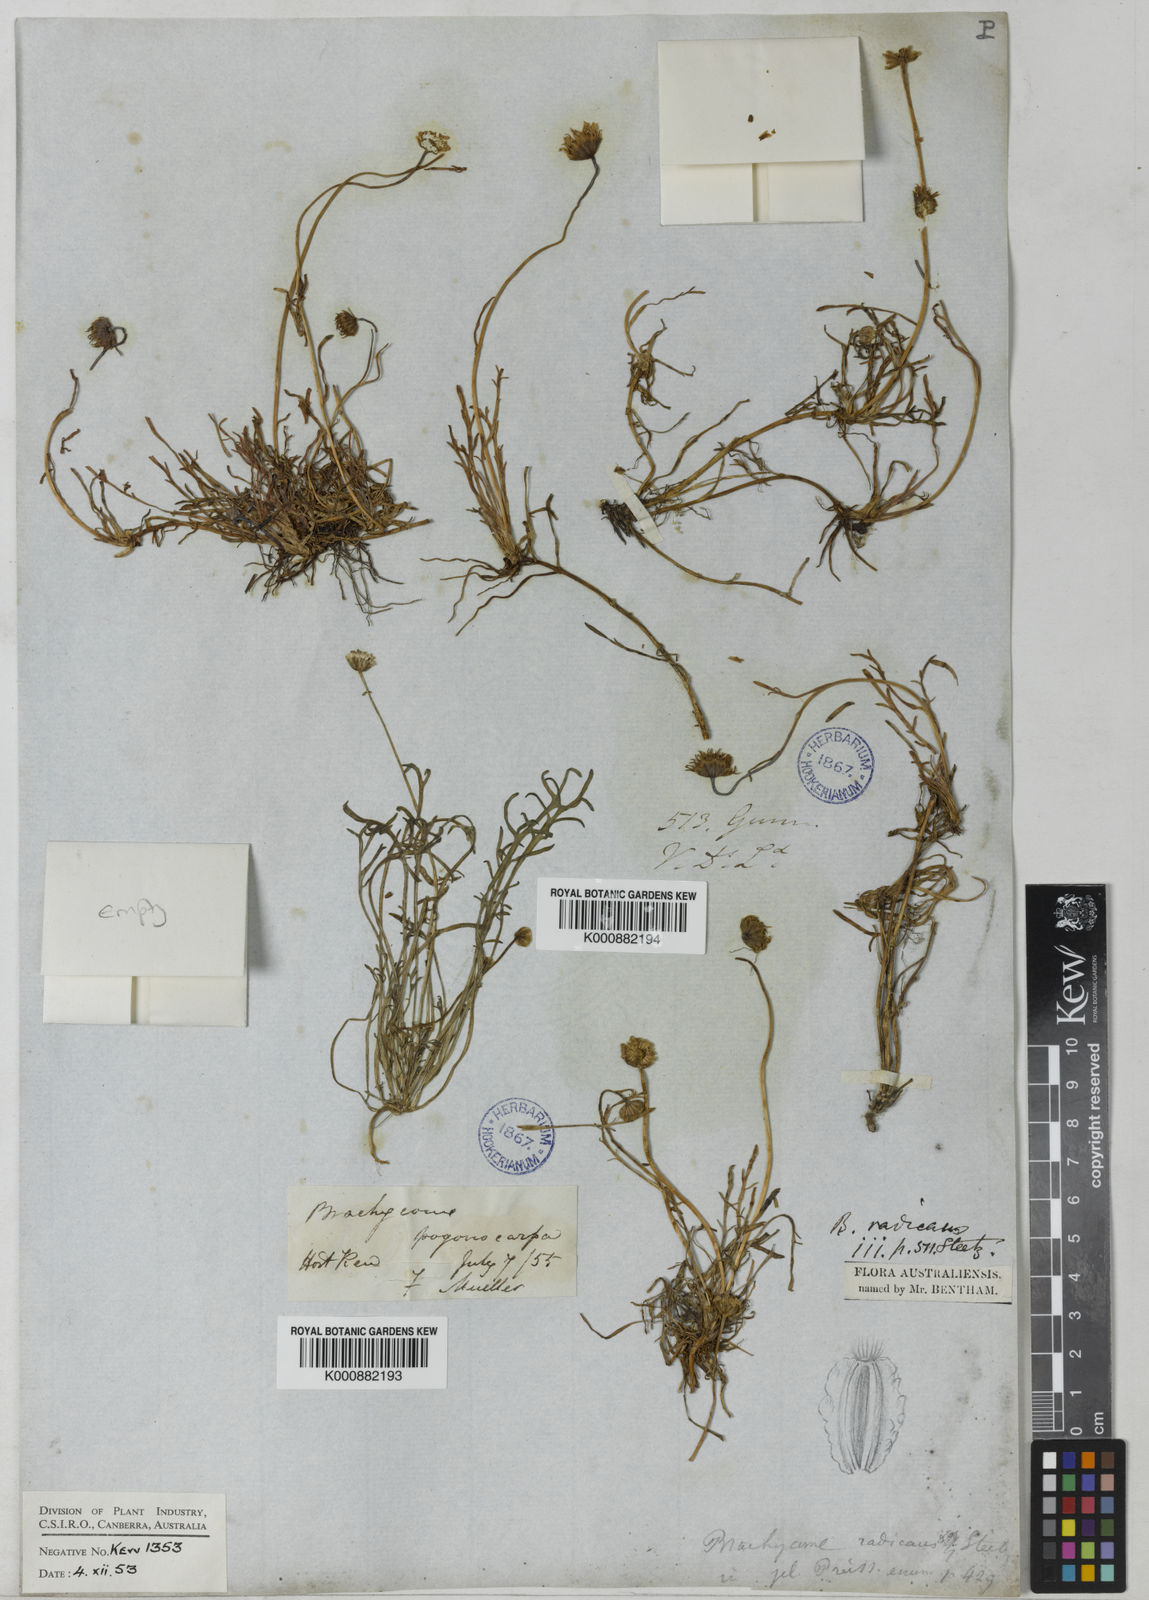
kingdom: Plantae
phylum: Tracheophyta
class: Magnoliopsida
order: Asterales
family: Asteraceae
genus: Brachyscome
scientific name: Brachyscome radicans
